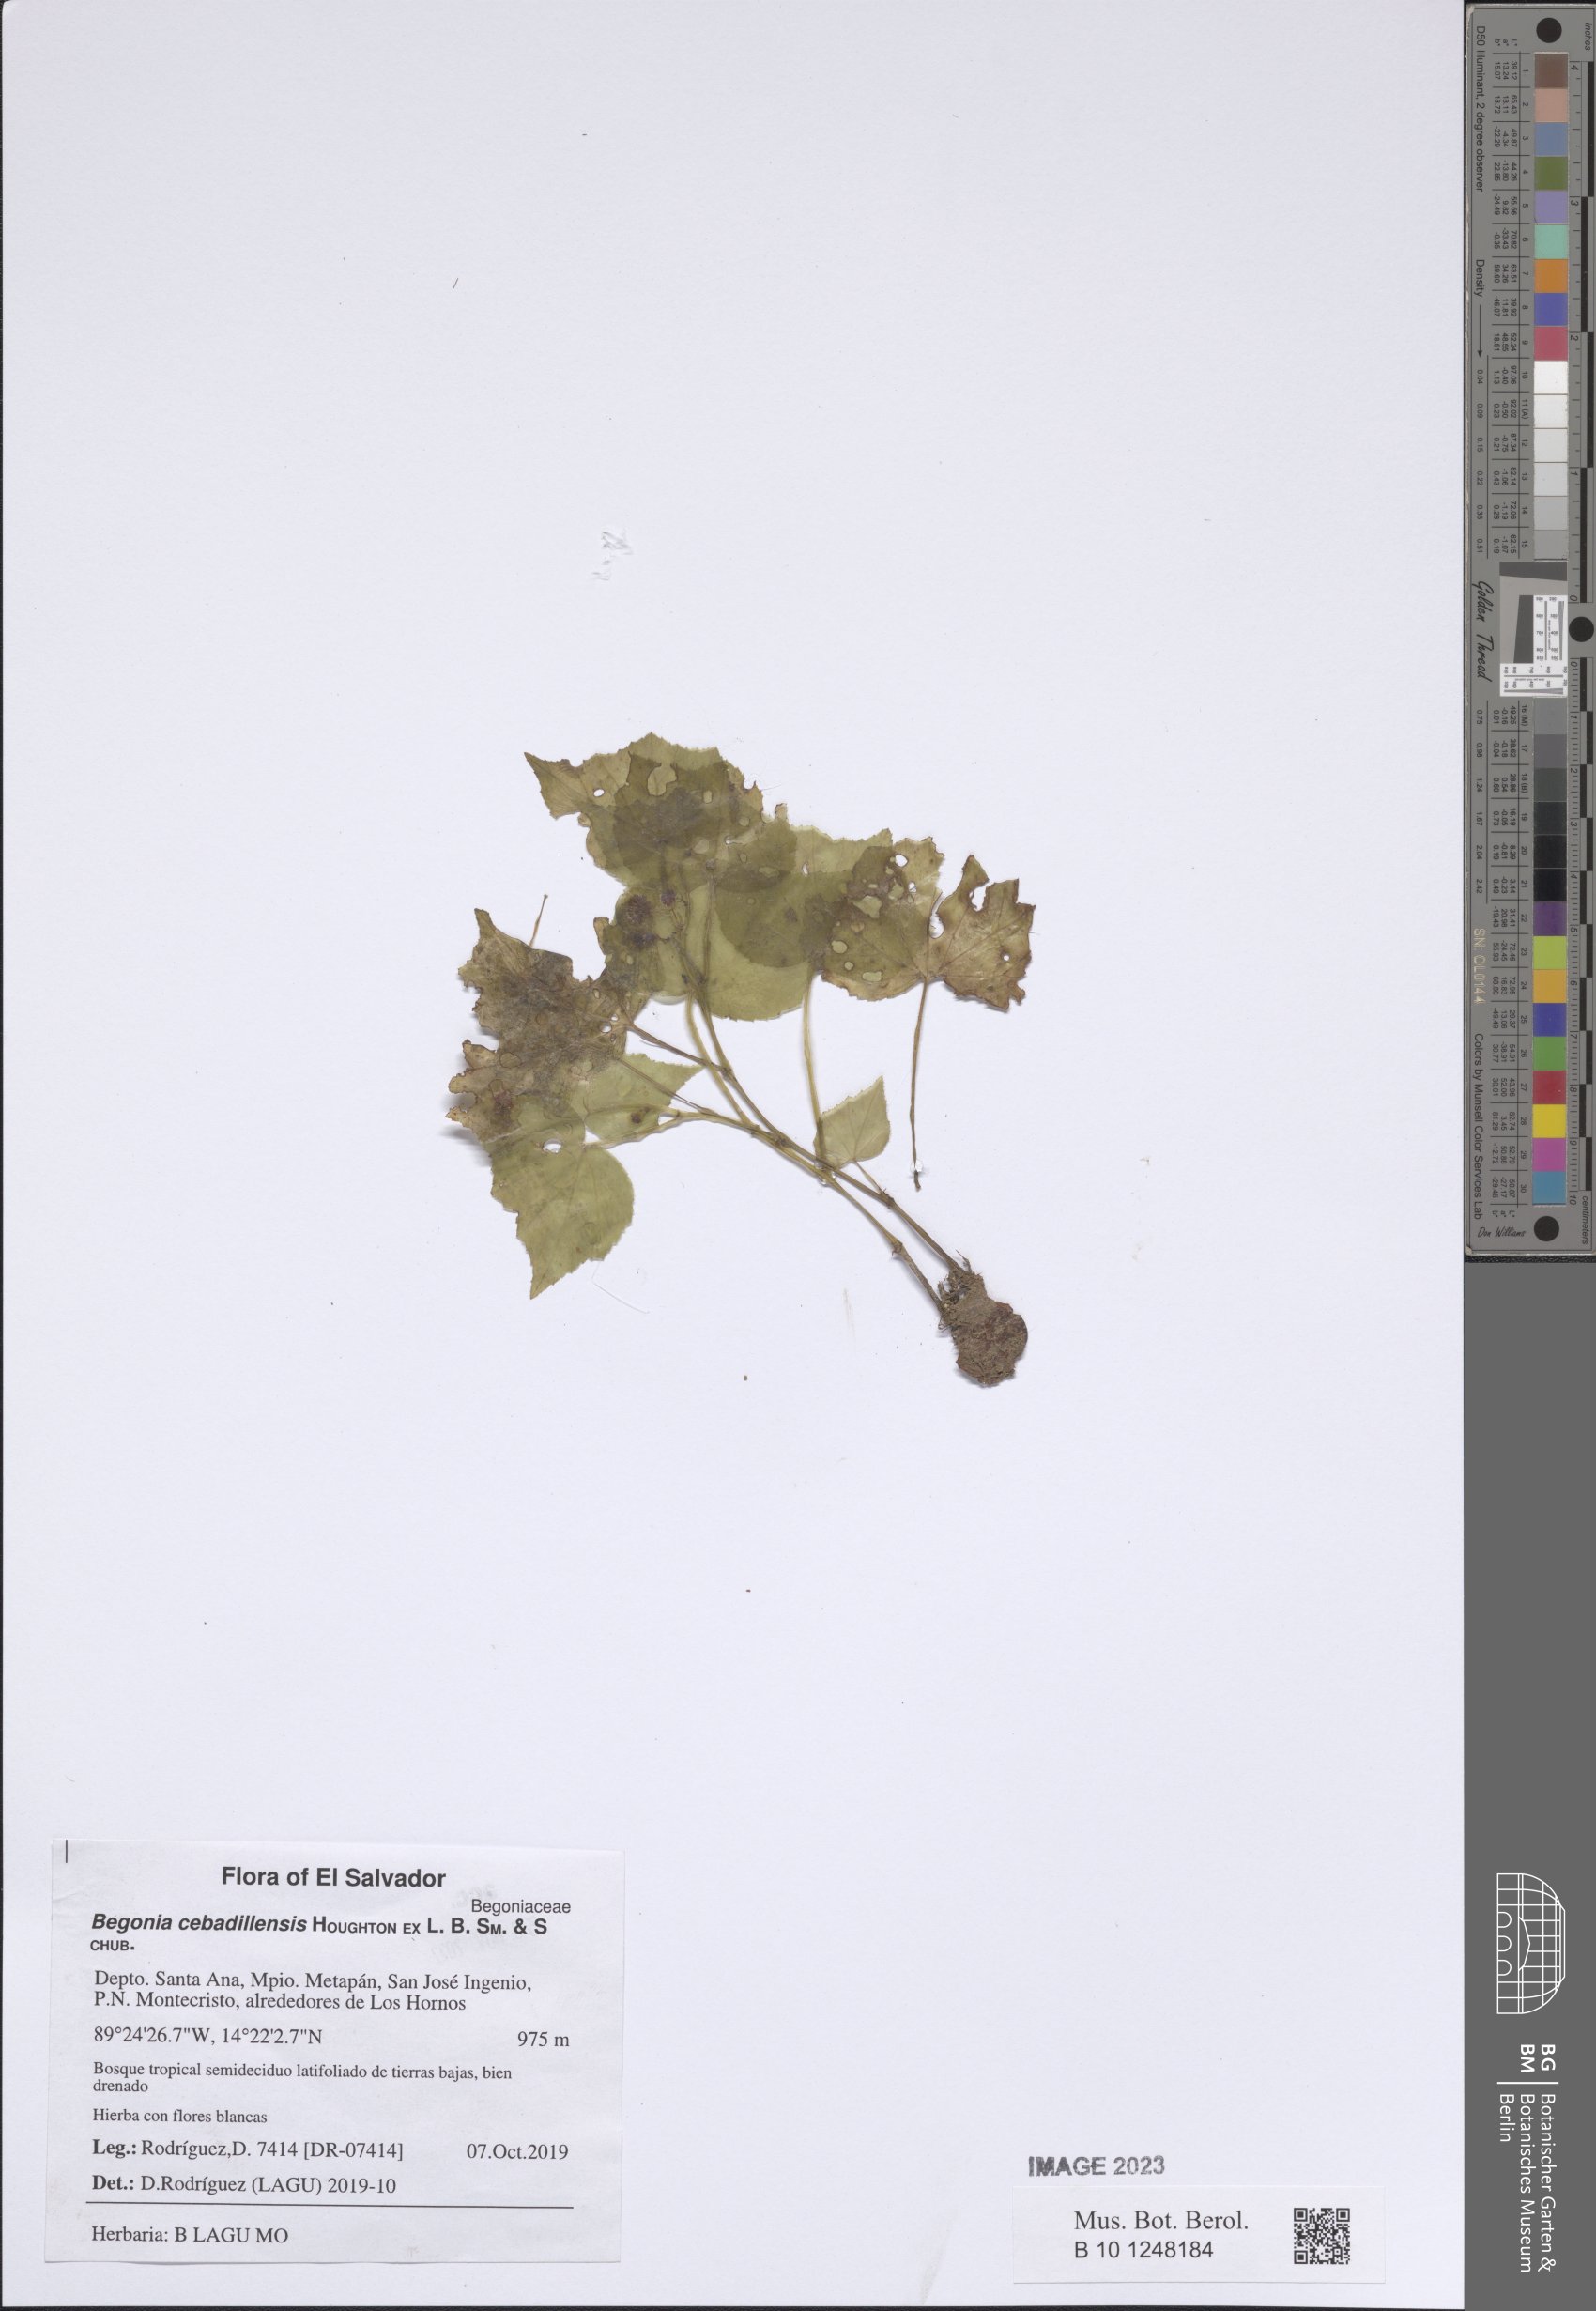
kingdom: Plantae
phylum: Tracheophyta
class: Magnoliopsida
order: Cucurbitales
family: Begoniaceae
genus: Begonia
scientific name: Begonia cebadillensis
